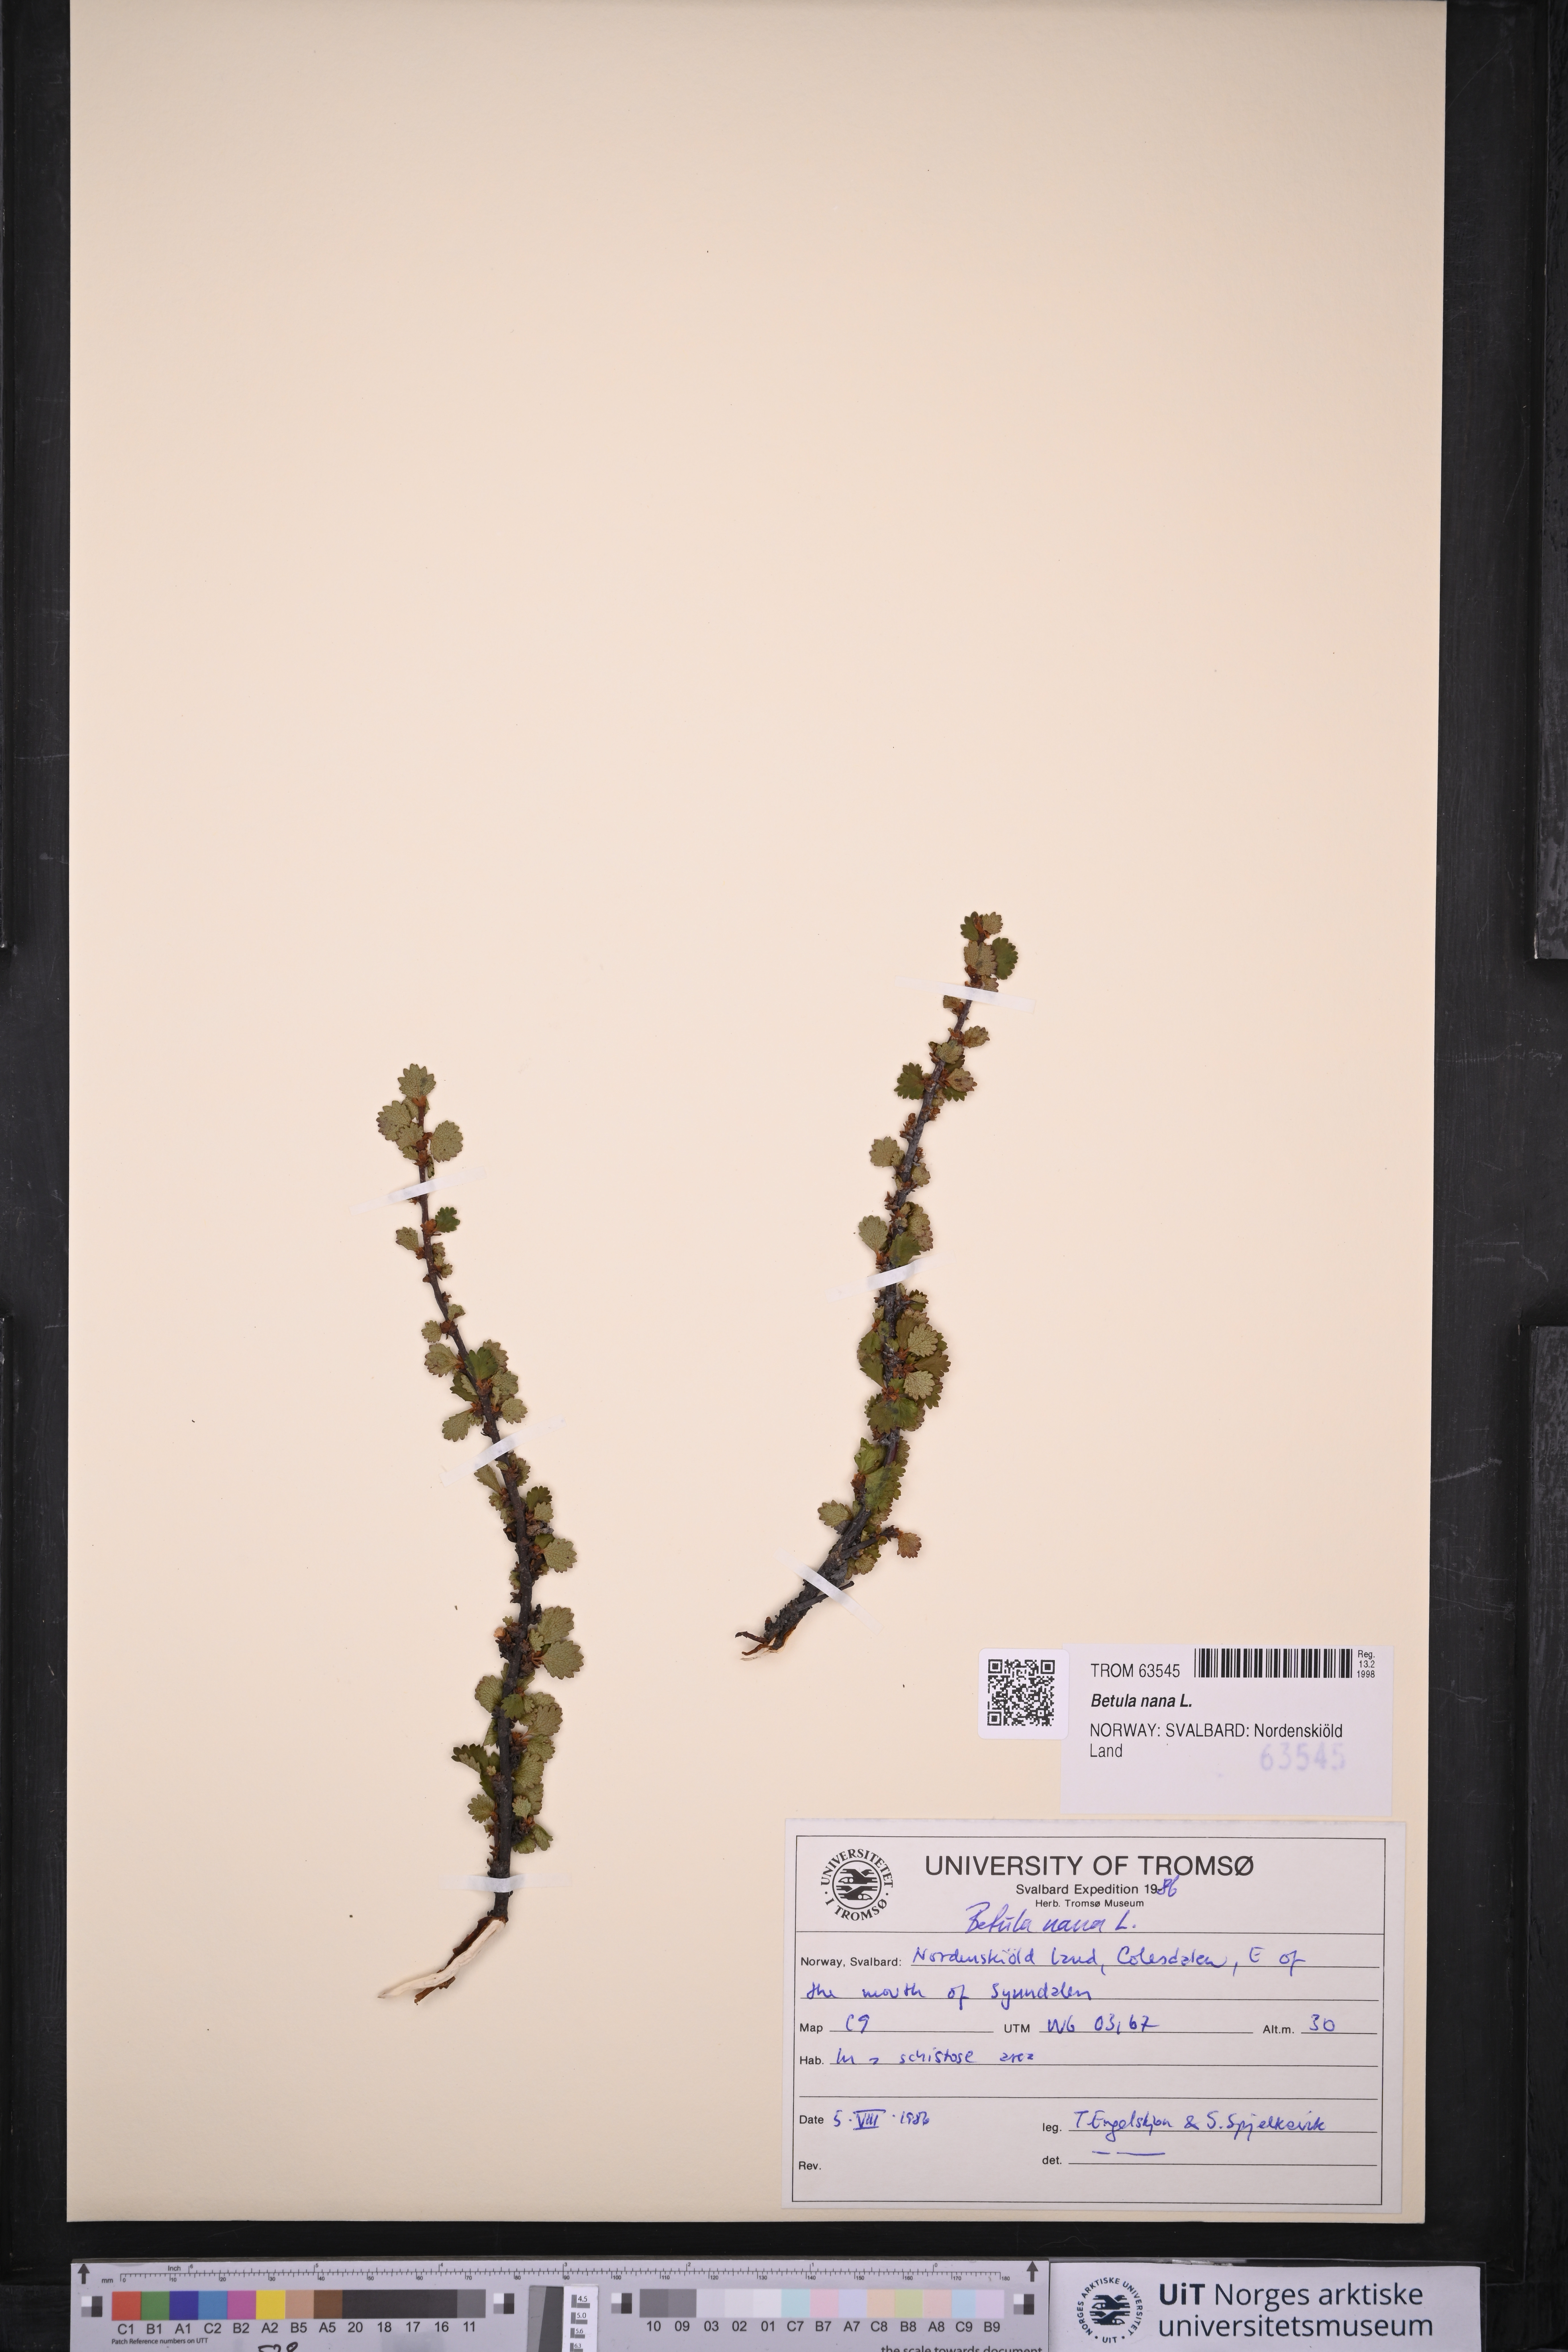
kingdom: Plantae
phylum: Tracheophyta
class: Magnoliopsida
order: Fagales
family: Betulaceae
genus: Betula
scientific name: Betula nana
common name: Arctic dwarf birch
